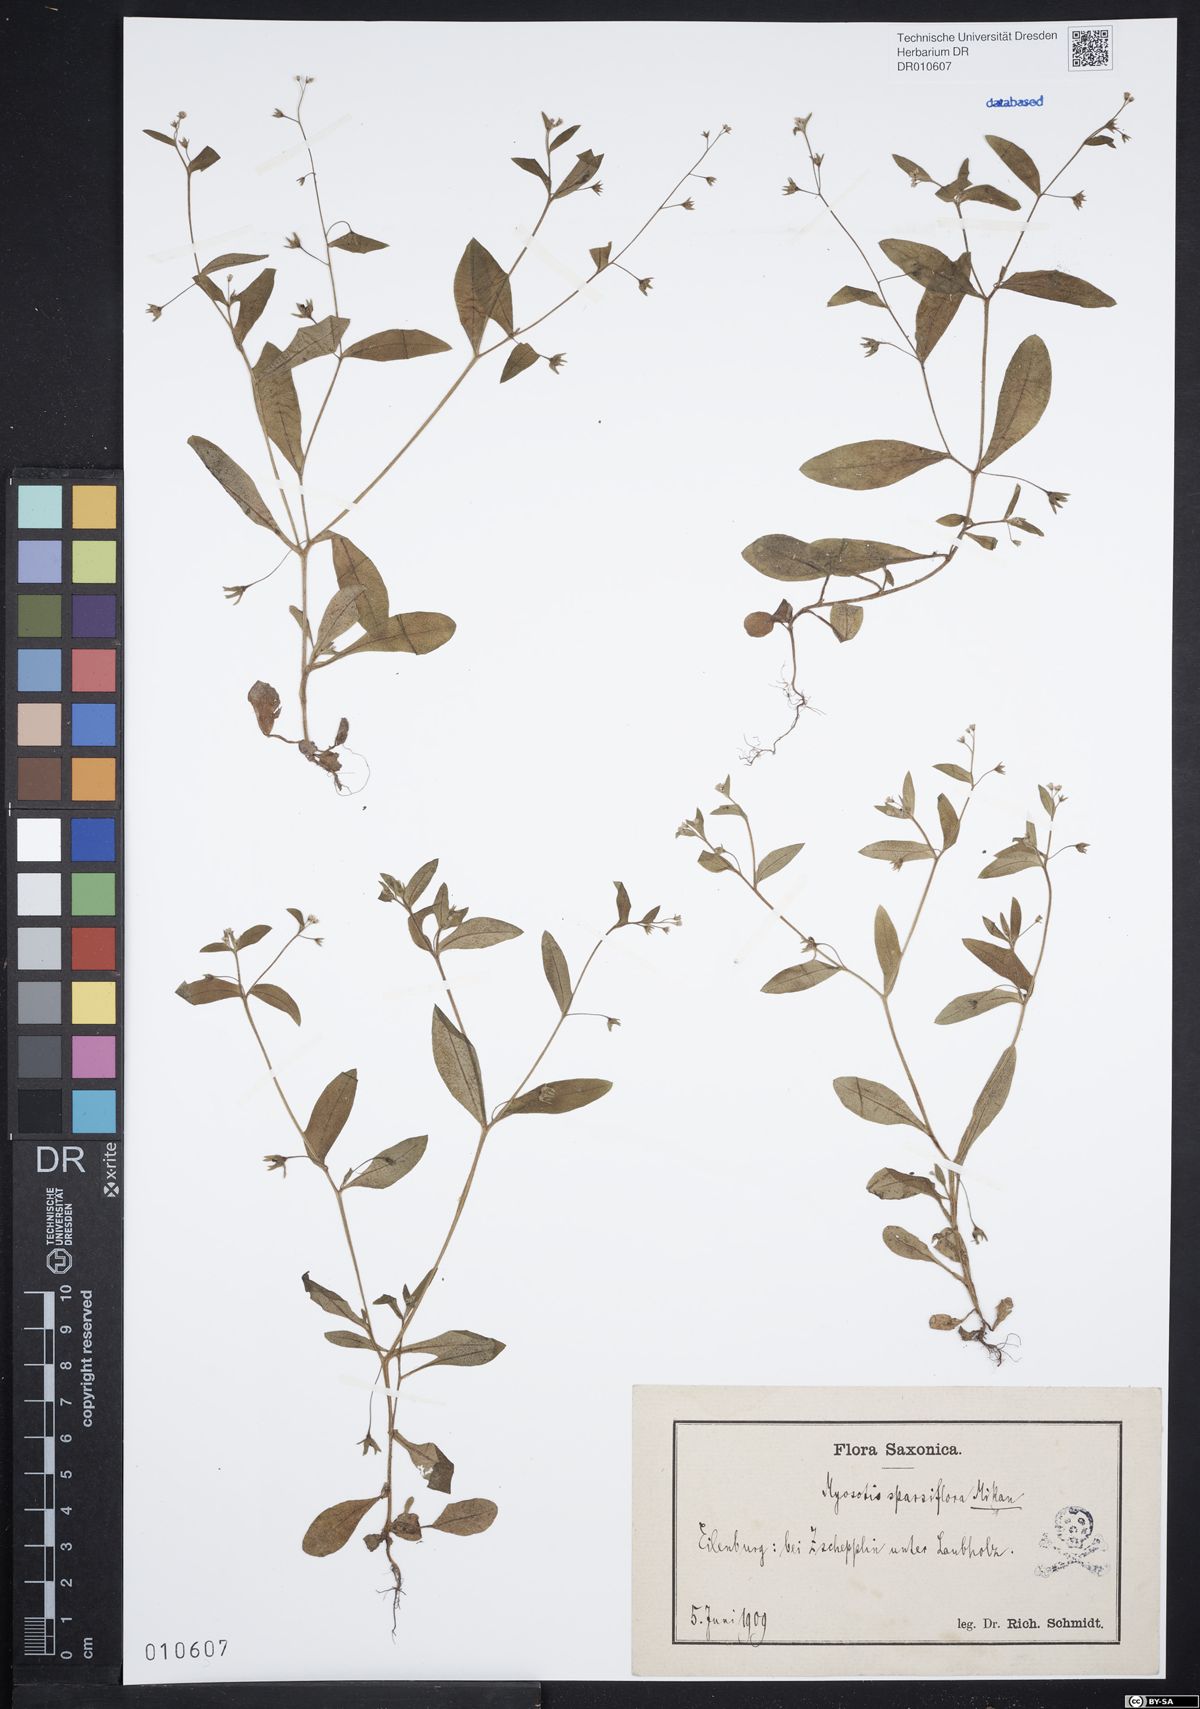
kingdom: Plantae
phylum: Tracheophyta
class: Magnoliopsida
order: Boraginales
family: Boraginaceae
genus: Myosotis
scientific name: Myosotis sparsiflora
